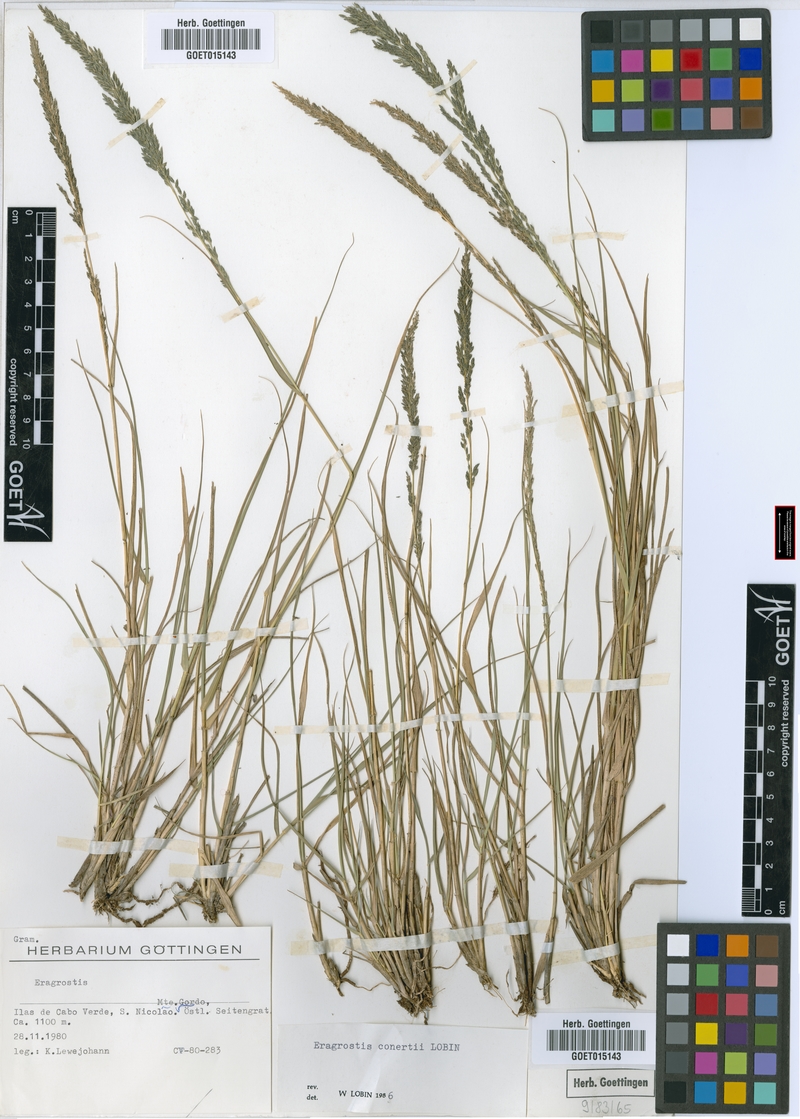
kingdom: Plantae
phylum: Tracheophyta
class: Liliopsida
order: Poales
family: Poaceae
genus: Eragrostis
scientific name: Eragrostis conertii
